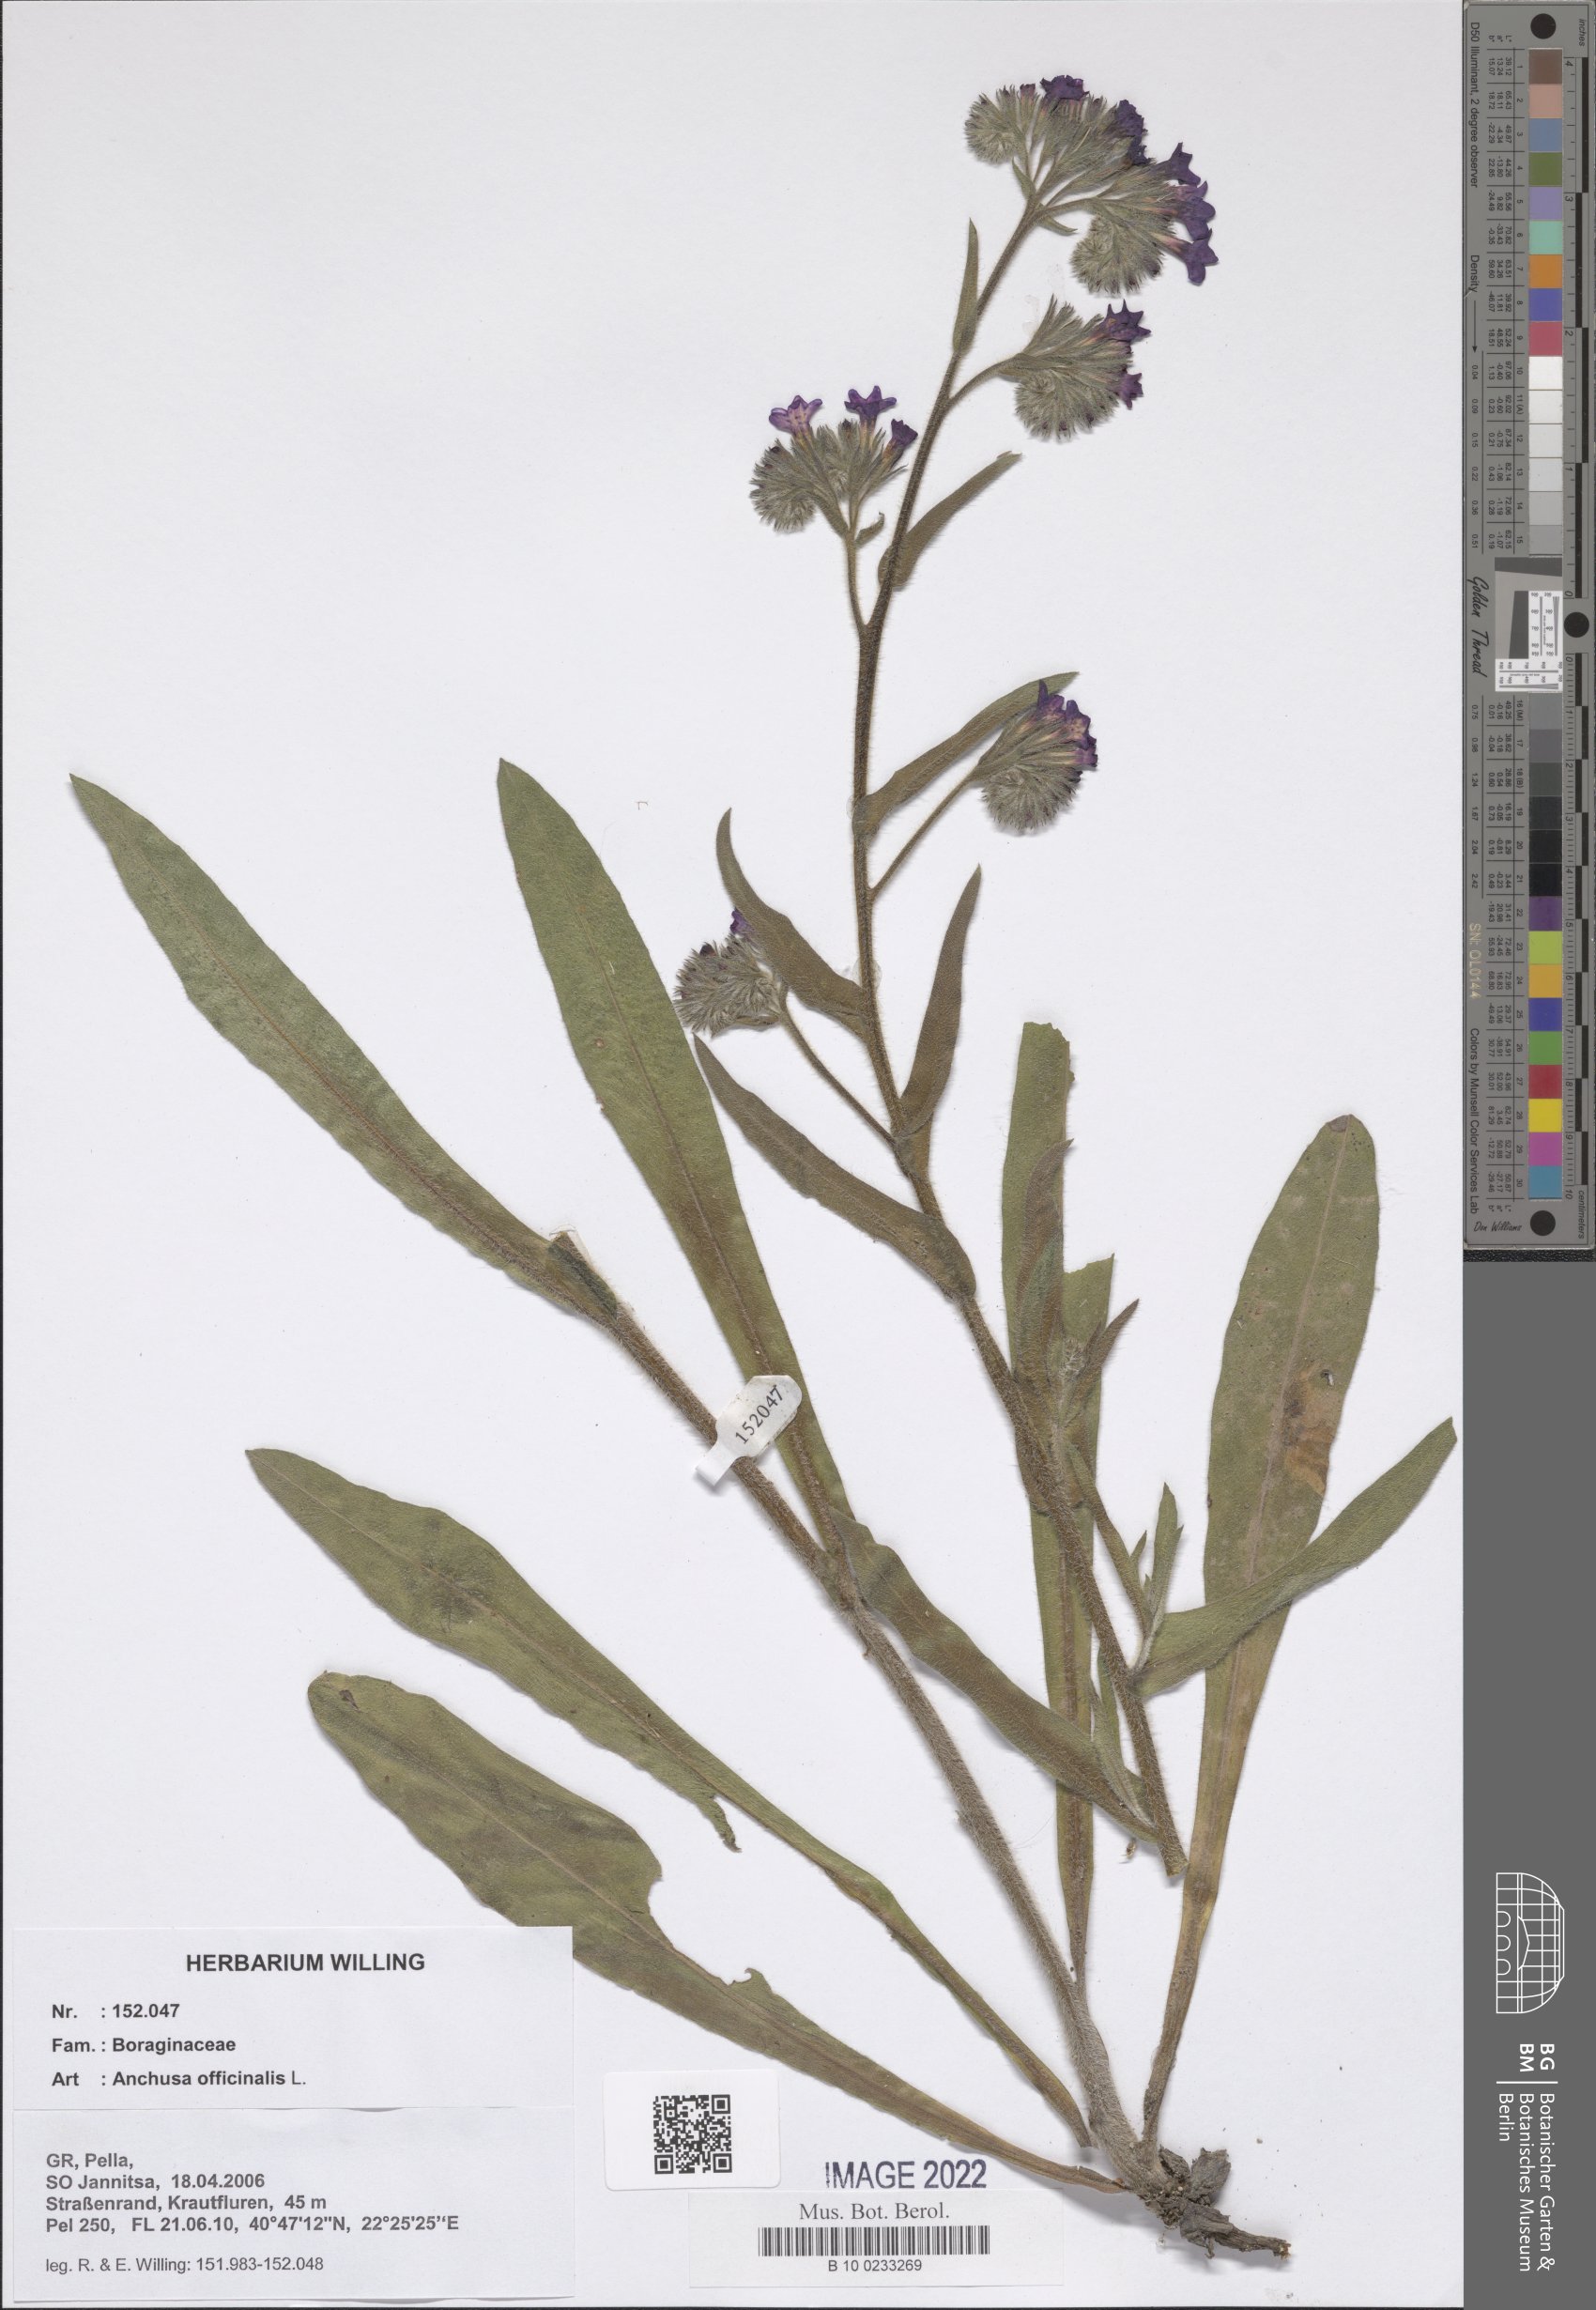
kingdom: Plantae
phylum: Tracheophyta
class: Magnoliopsida
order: Boraginales
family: Boraginaceae
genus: Anchusa
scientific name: Anchusa officinalis
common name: Alkanet
